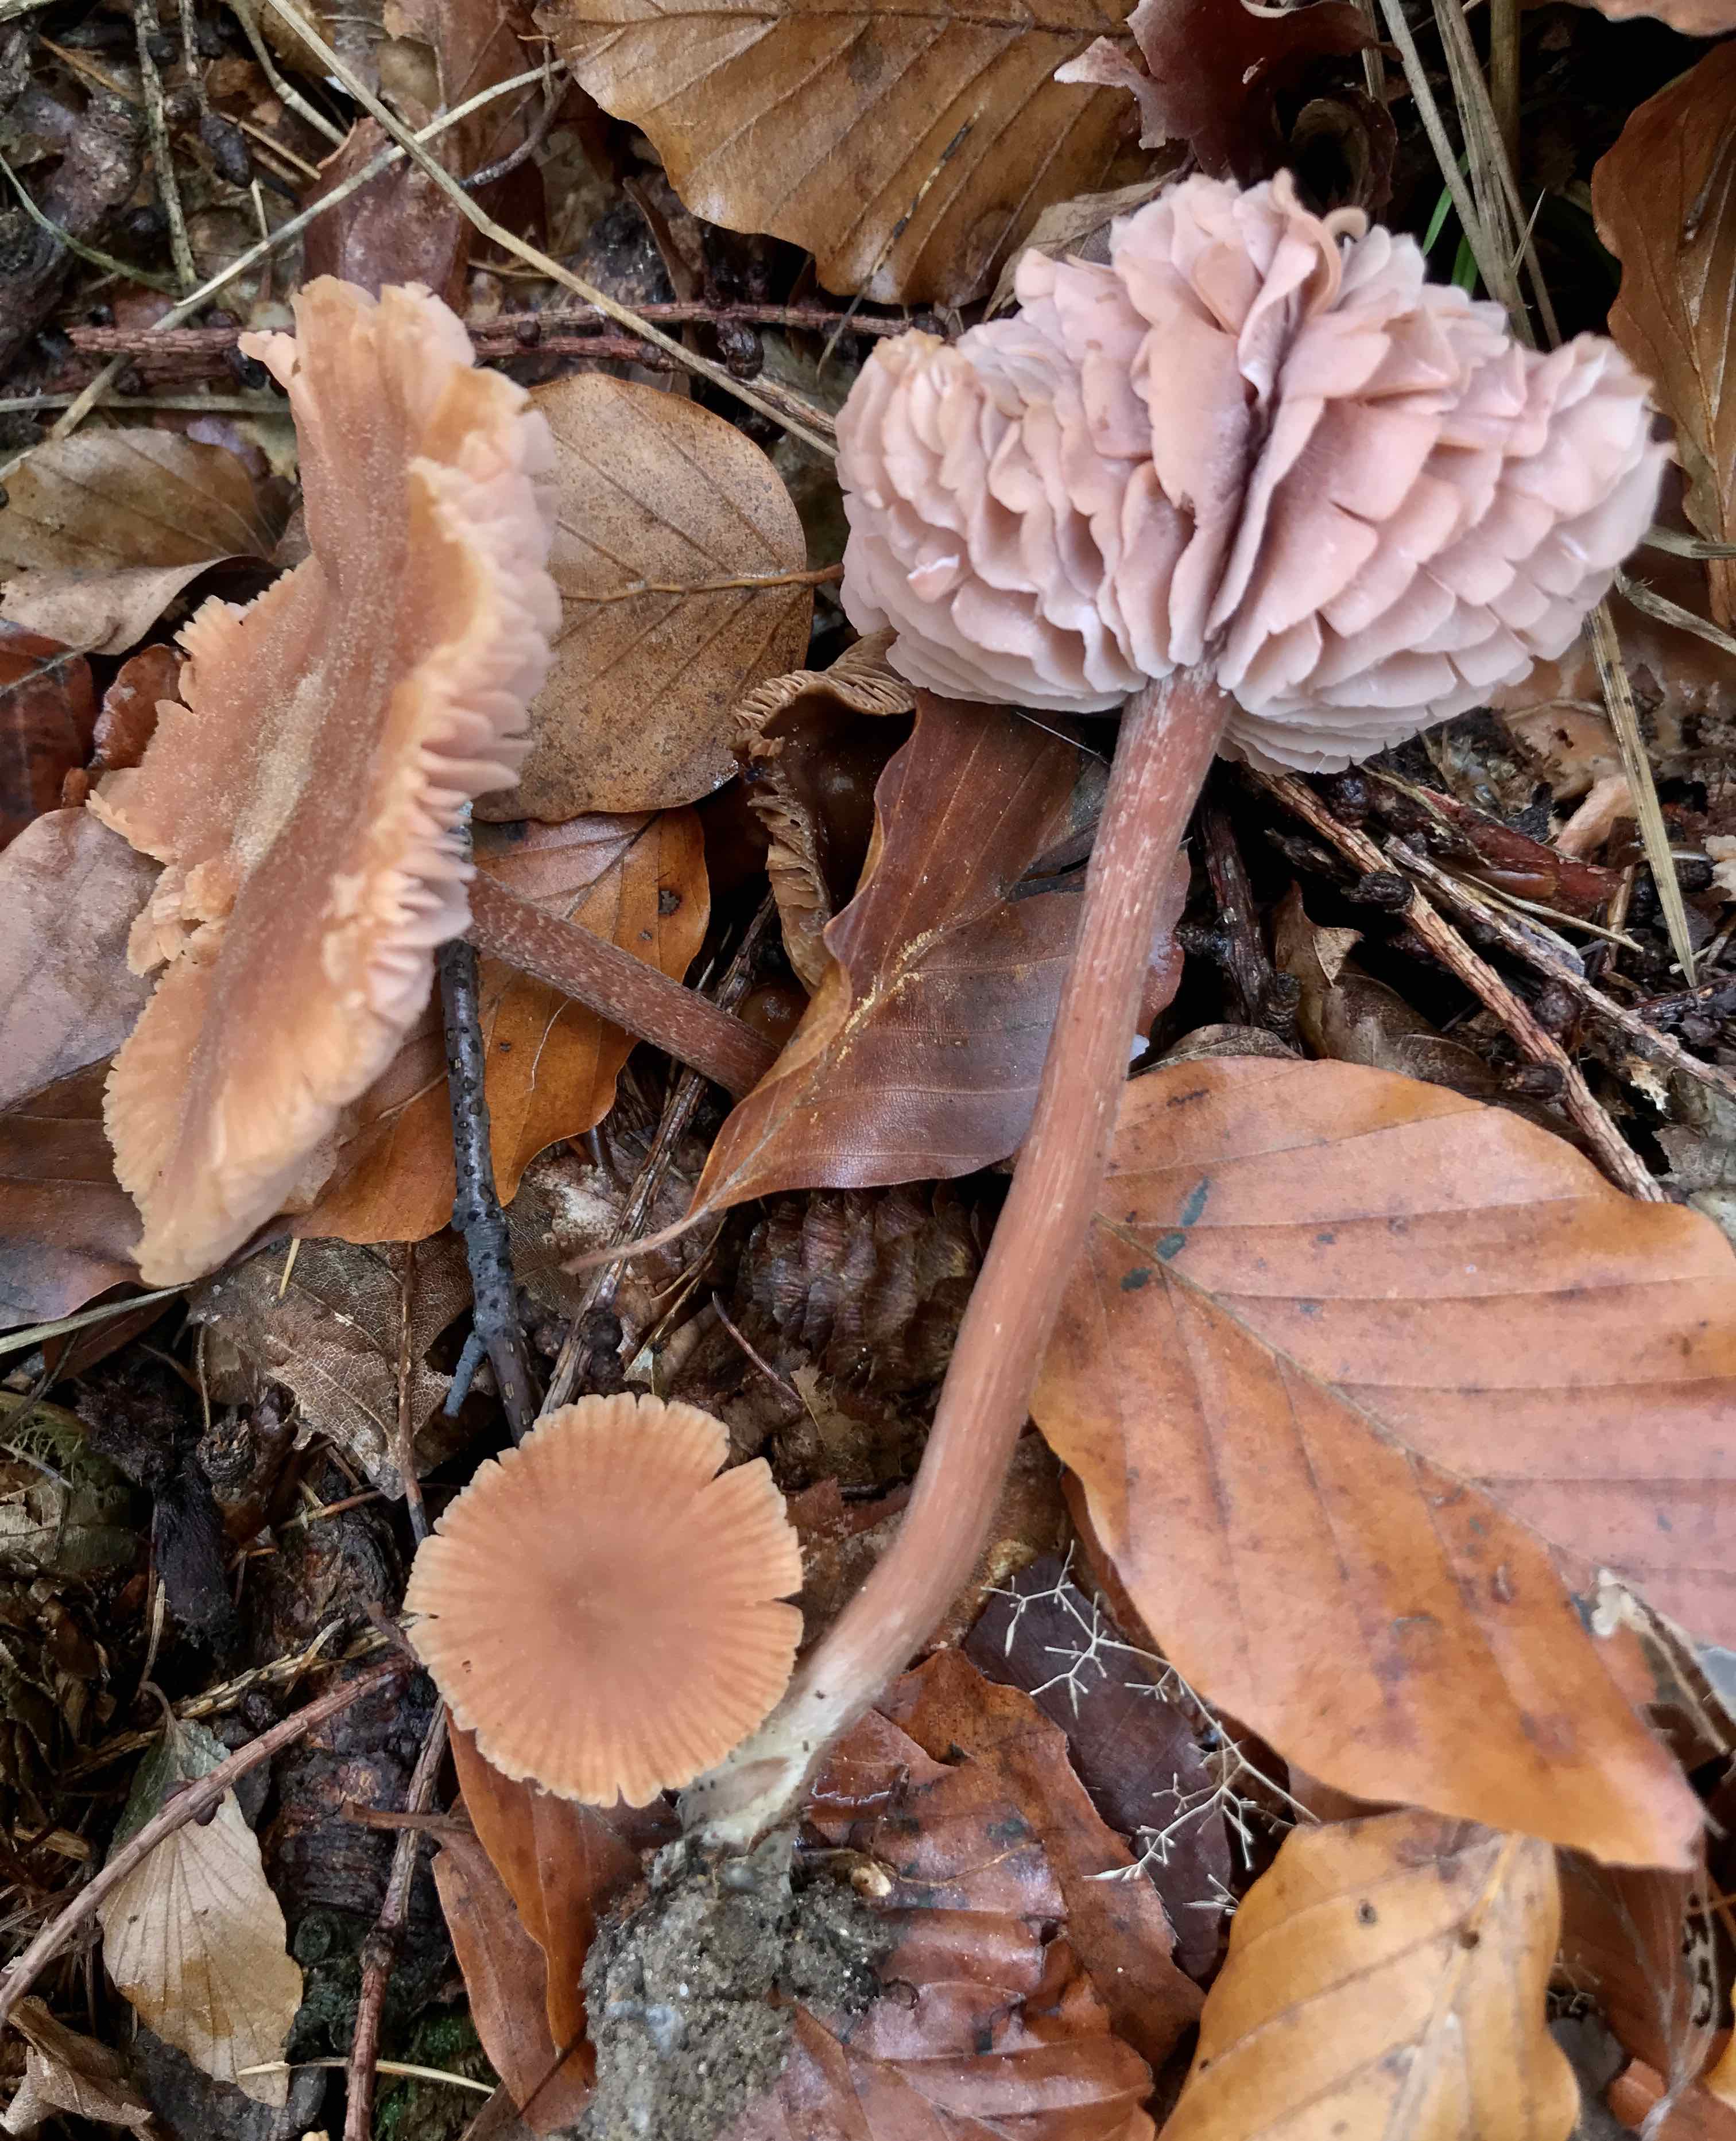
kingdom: Fungi
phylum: Basidiomycota
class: Agaricomycetes
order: Agaricales
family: Hydnangiaceae
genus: Laccaria
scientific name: Laccaria laccata
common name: rød ametysthat
